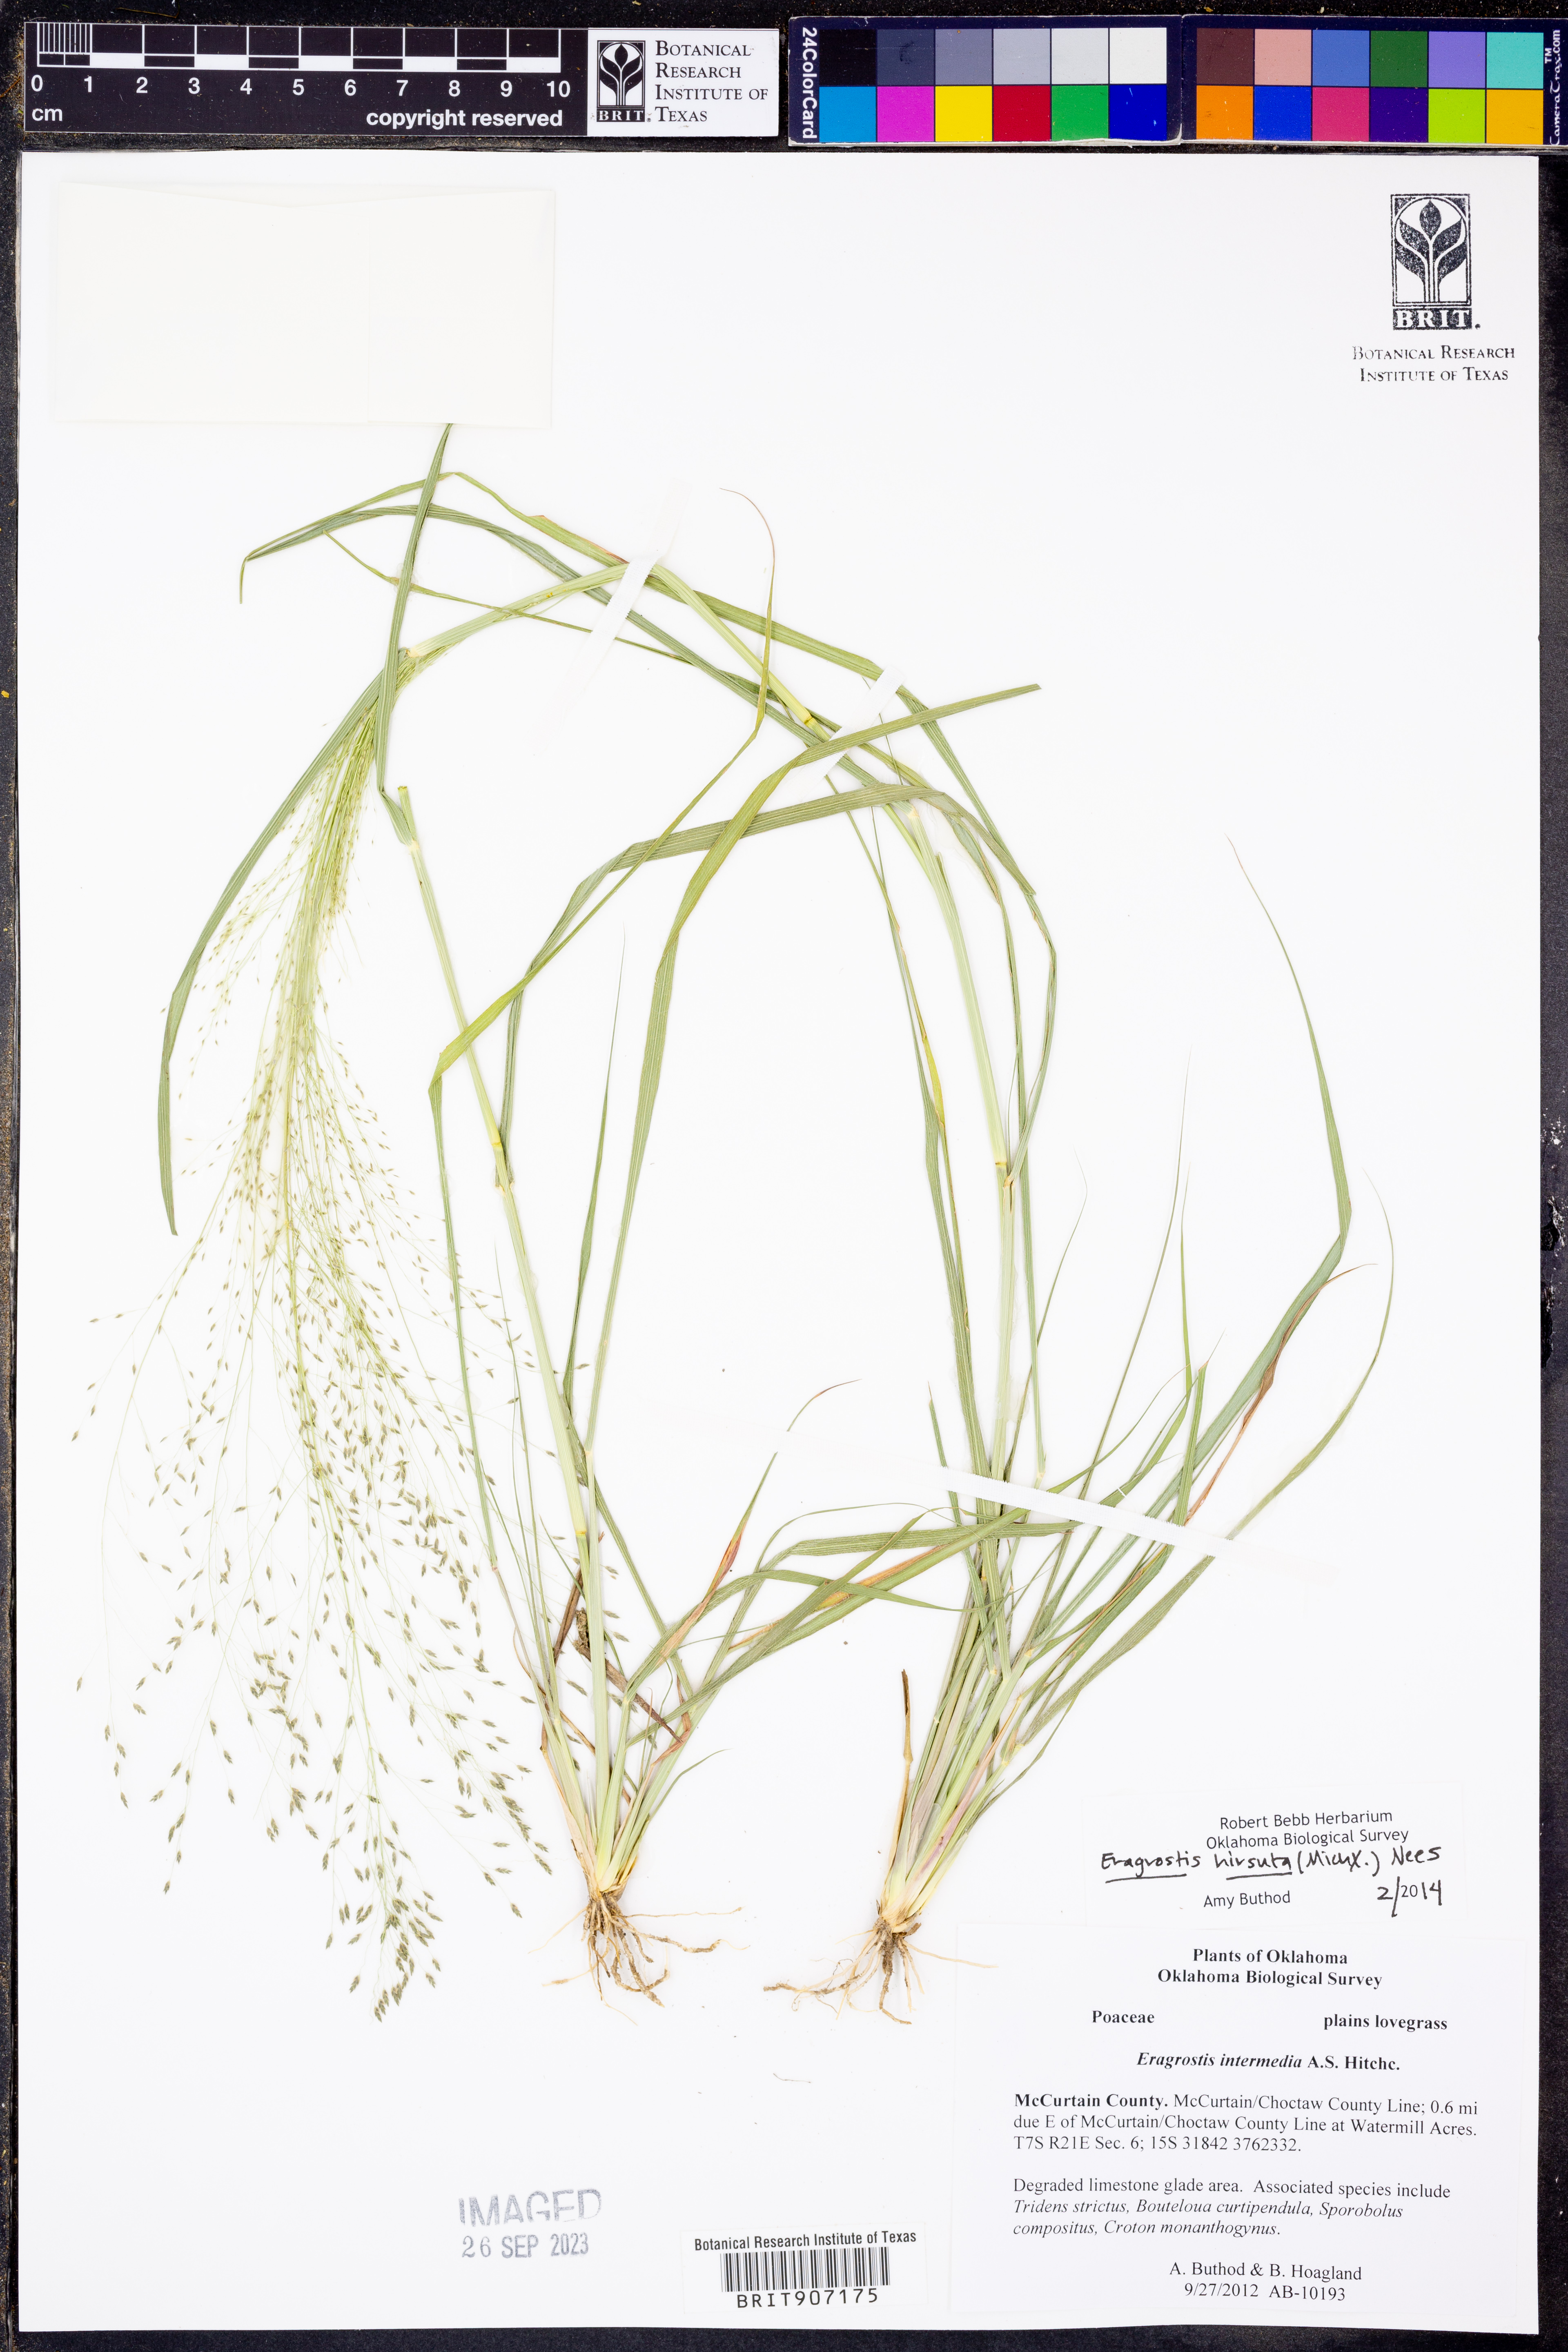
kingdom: Plantae
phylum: Tracheophyta
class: Liliopsida
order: Poales
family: Poaceae
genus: Eragrostis
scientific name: Eragrostis hirsuta
